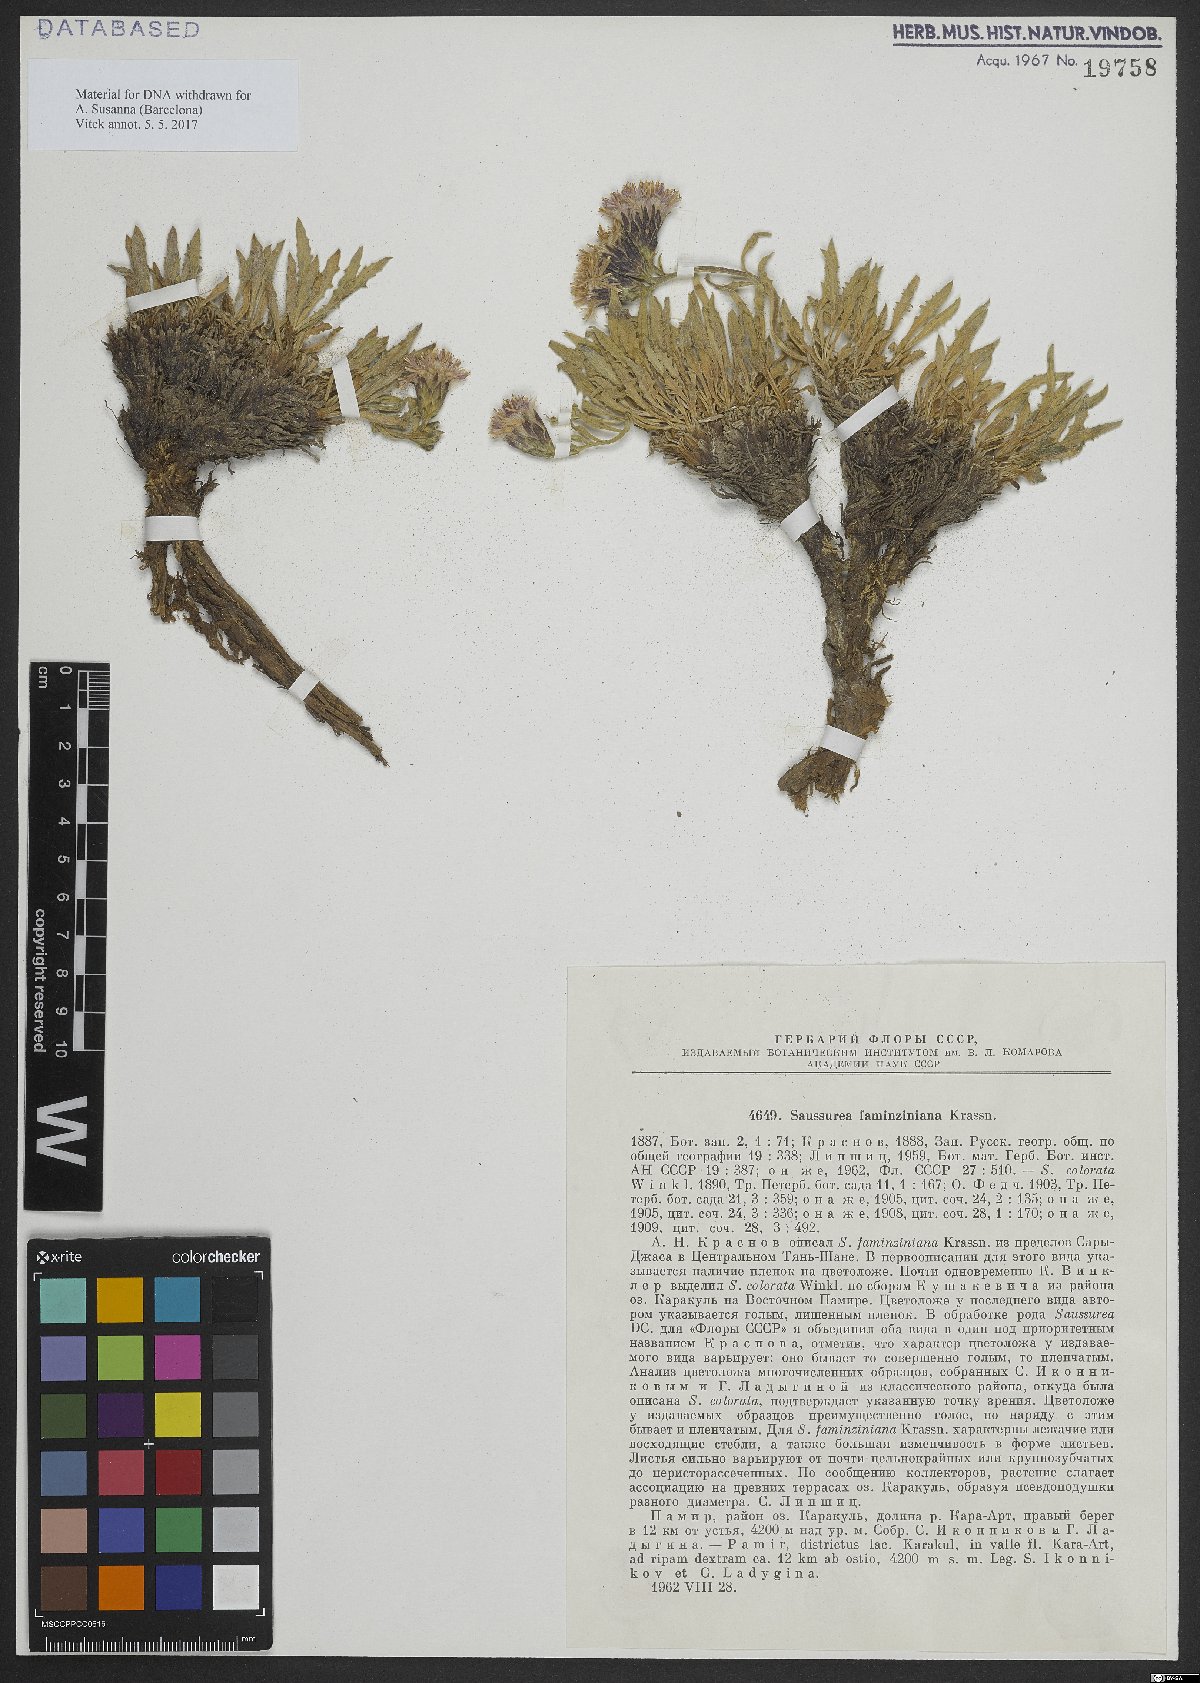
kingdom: Plantae
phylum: Tracheophyta
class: Magnoliopsida
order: Asterales
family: Asteraceae
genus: Saussurea
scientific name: Saussurea faminziana
